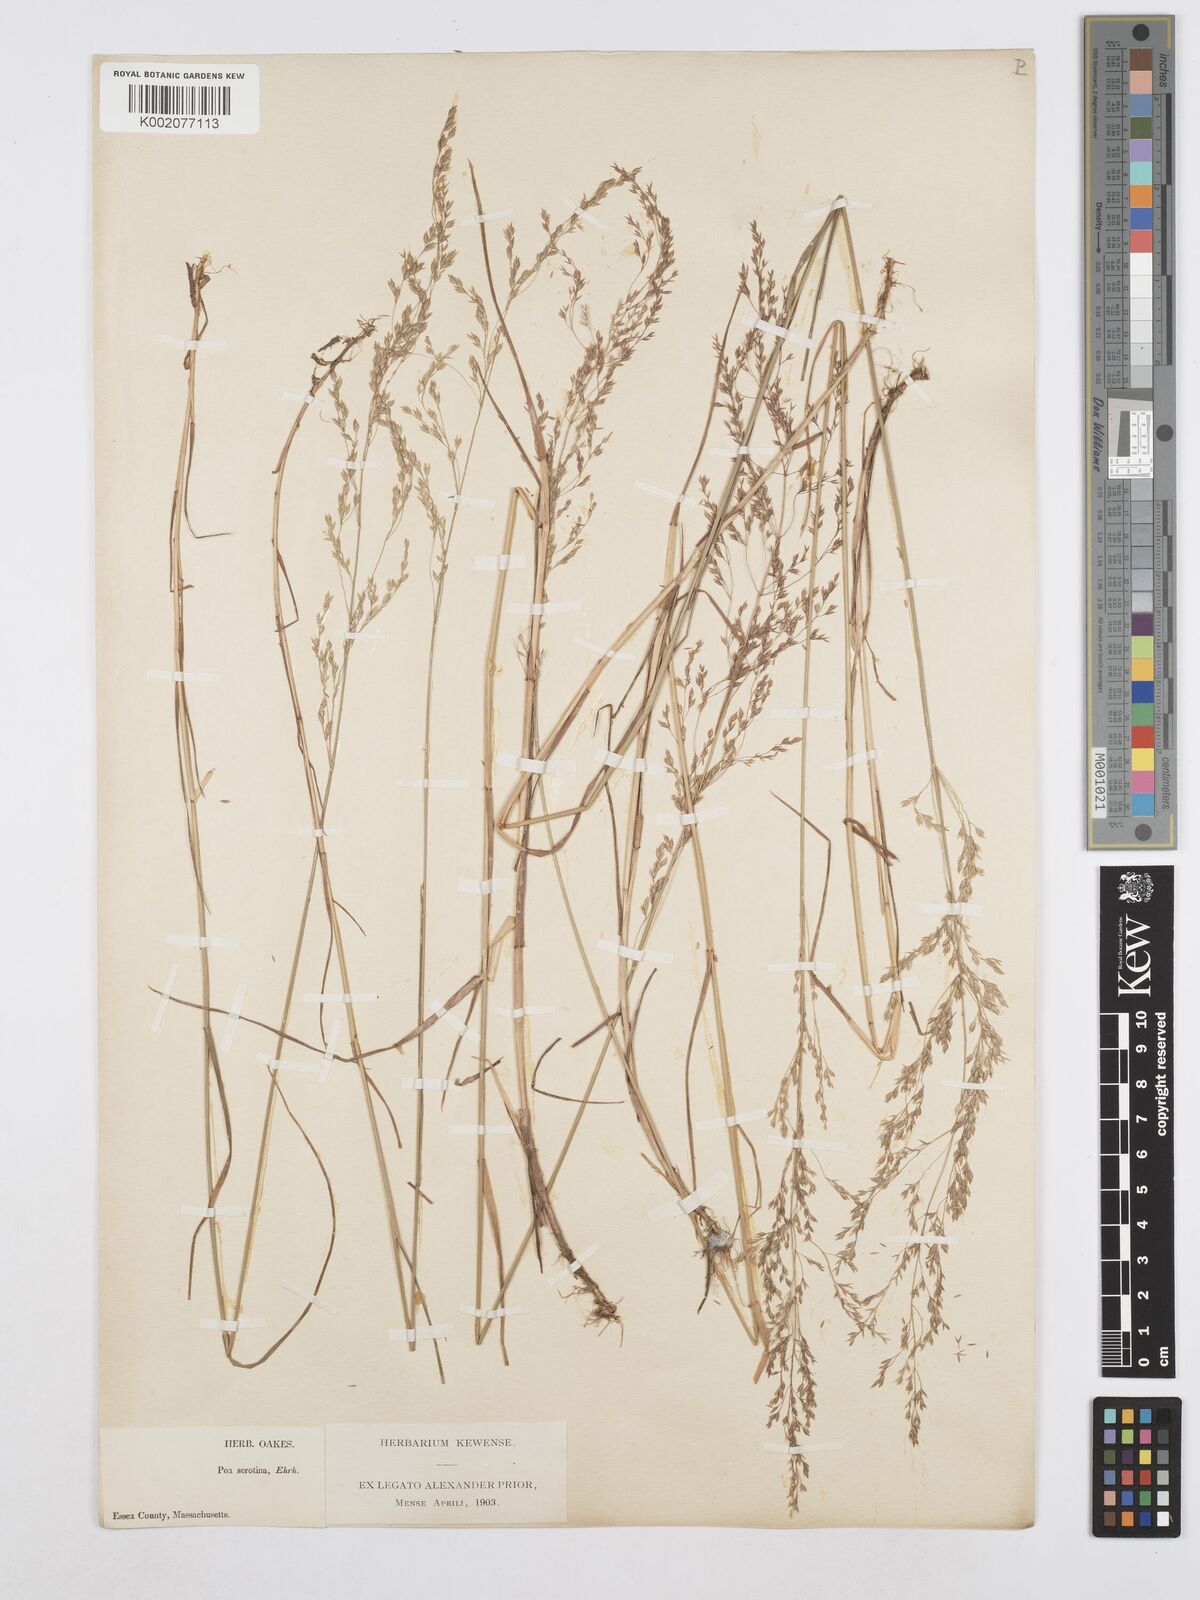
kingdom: Plantae
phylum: Tracheophyta
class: Liliopsida
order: Poales
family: Poaceae
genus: Poa
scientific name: Poa palustris
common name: Swamp meadow-grass
